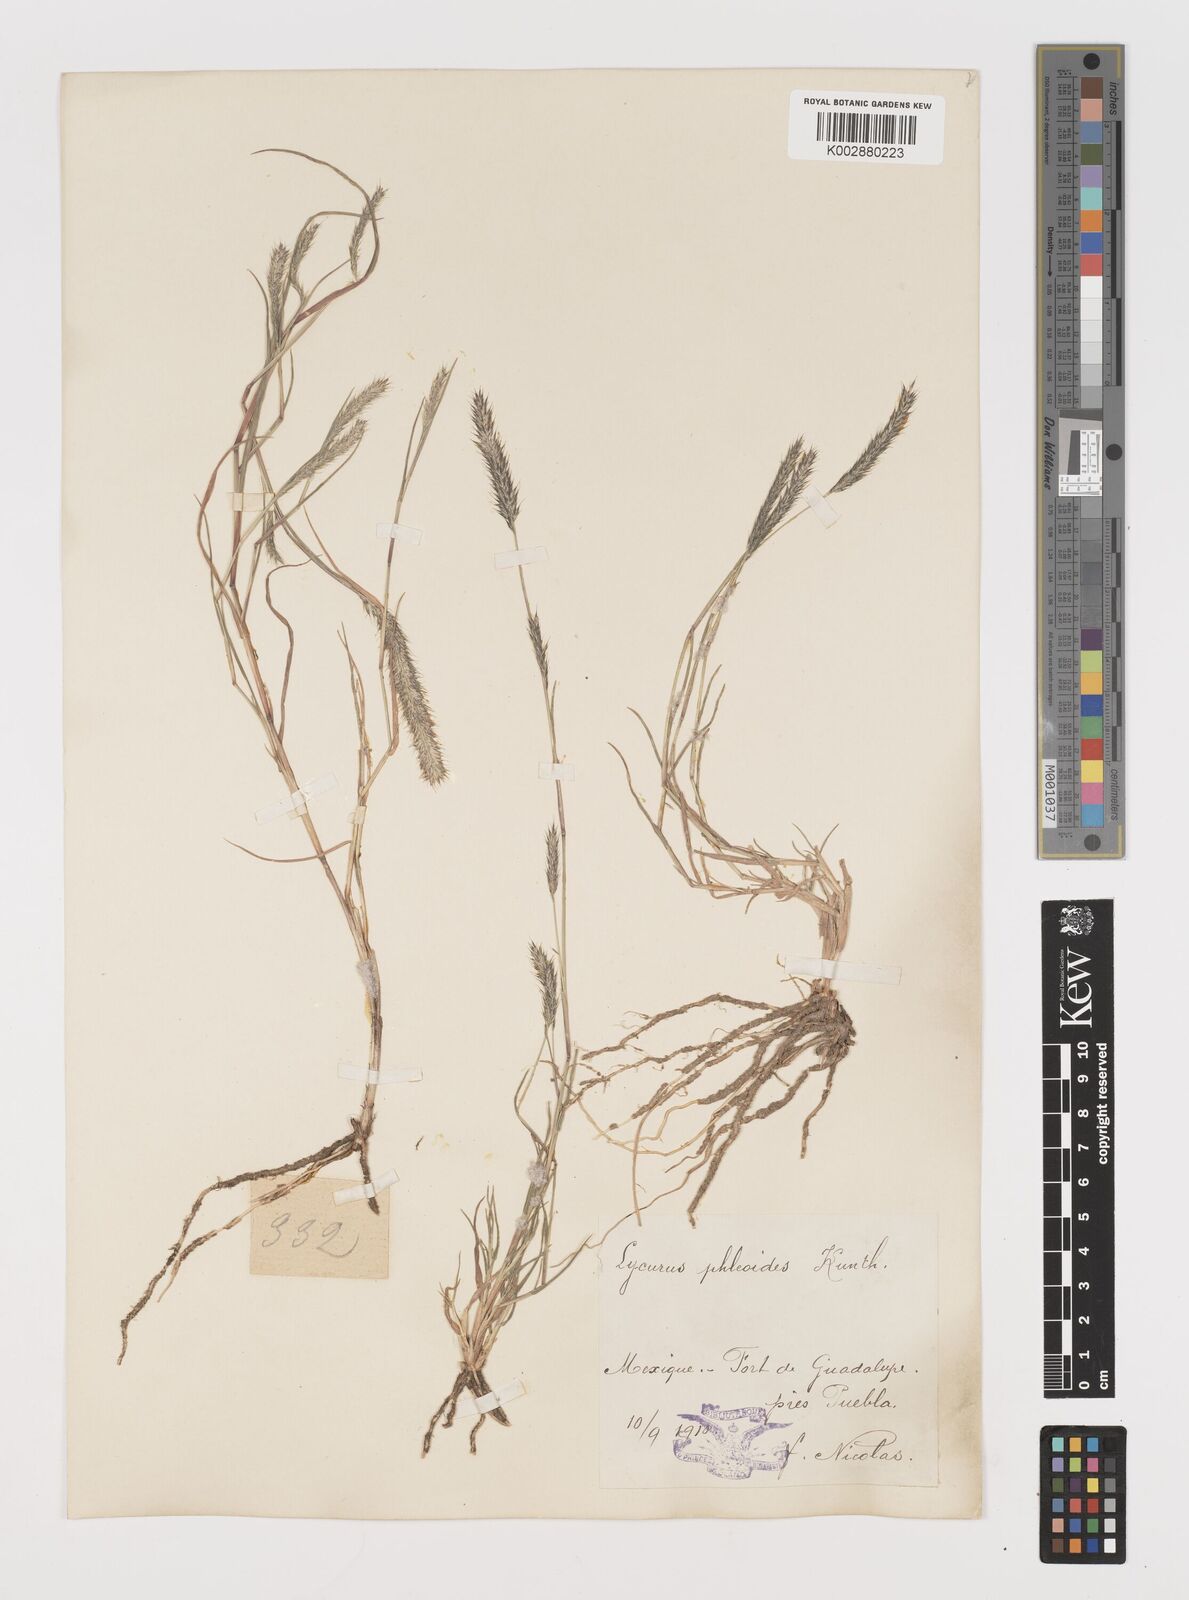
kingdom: Plantae
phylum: Tracheophyta
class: Liliopsida
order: Poales
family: Poaceae
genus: Muhlenbergia
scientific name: Muhlenbergia phleoides
